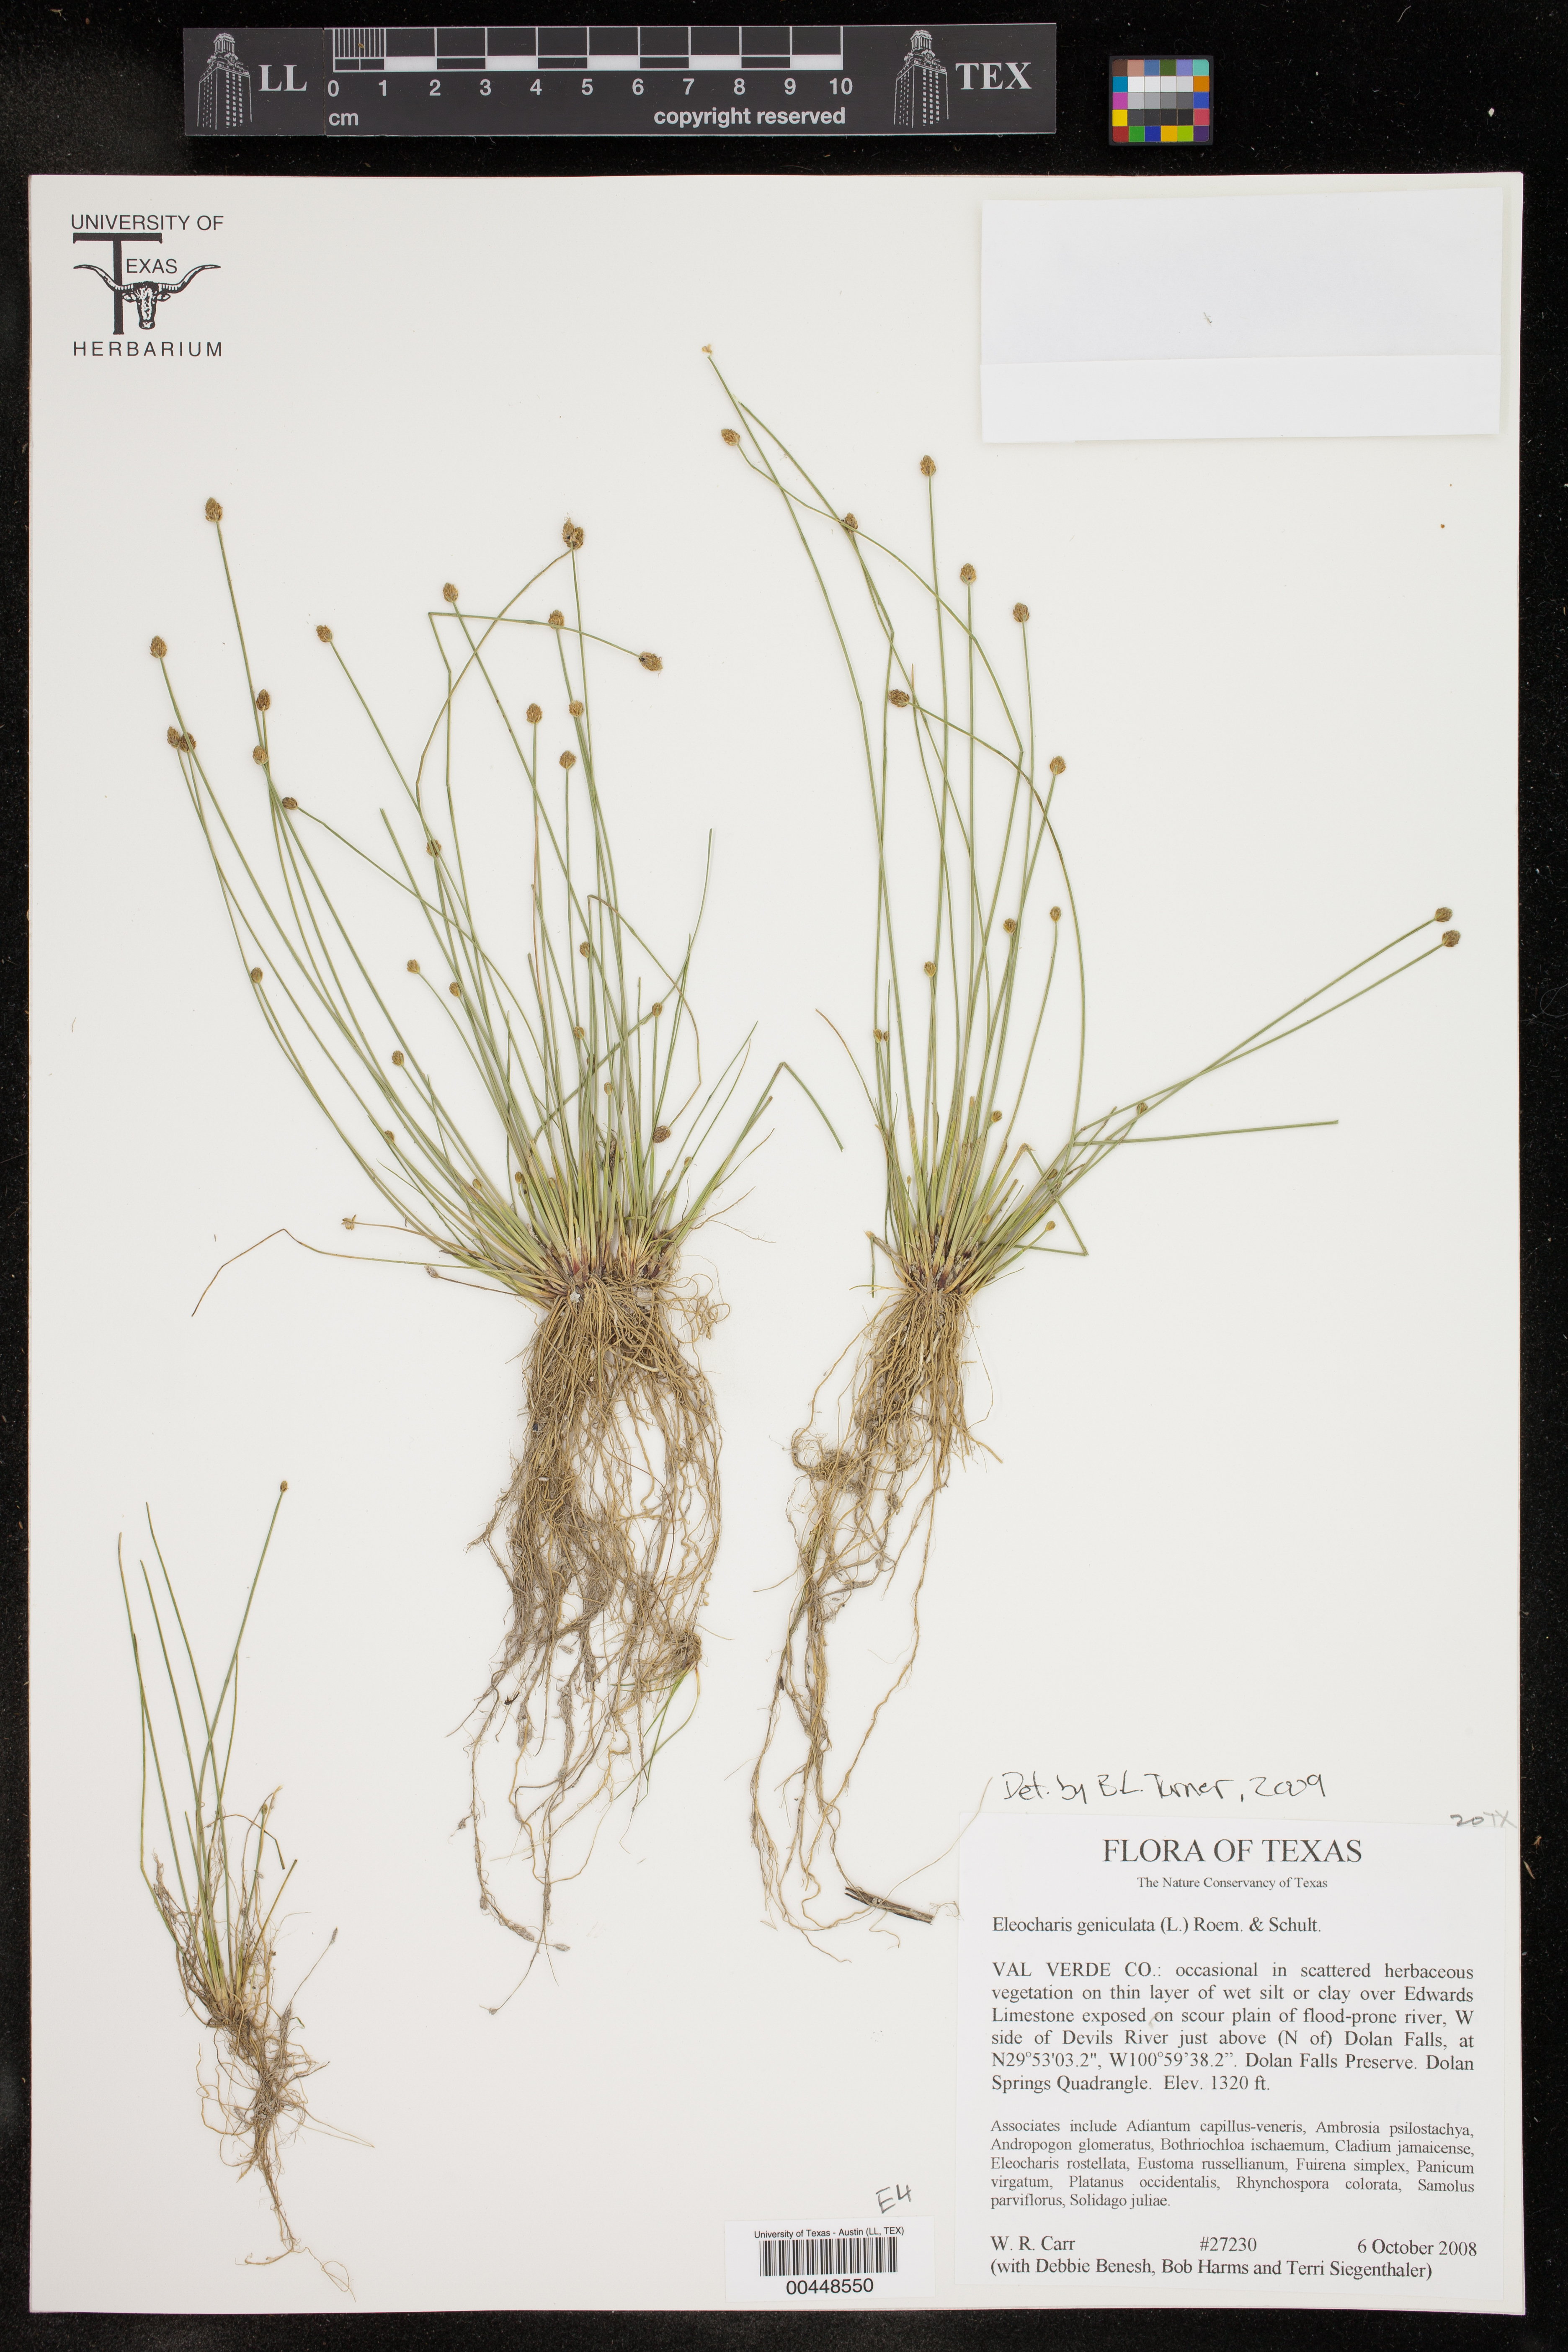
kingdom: Plantae
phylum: Tracheophyta
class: Liliopsida
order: Poales
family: Cyperaceae
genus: Eleocharis
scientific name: Eleocharis geniculata
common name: Canada spikesedge
